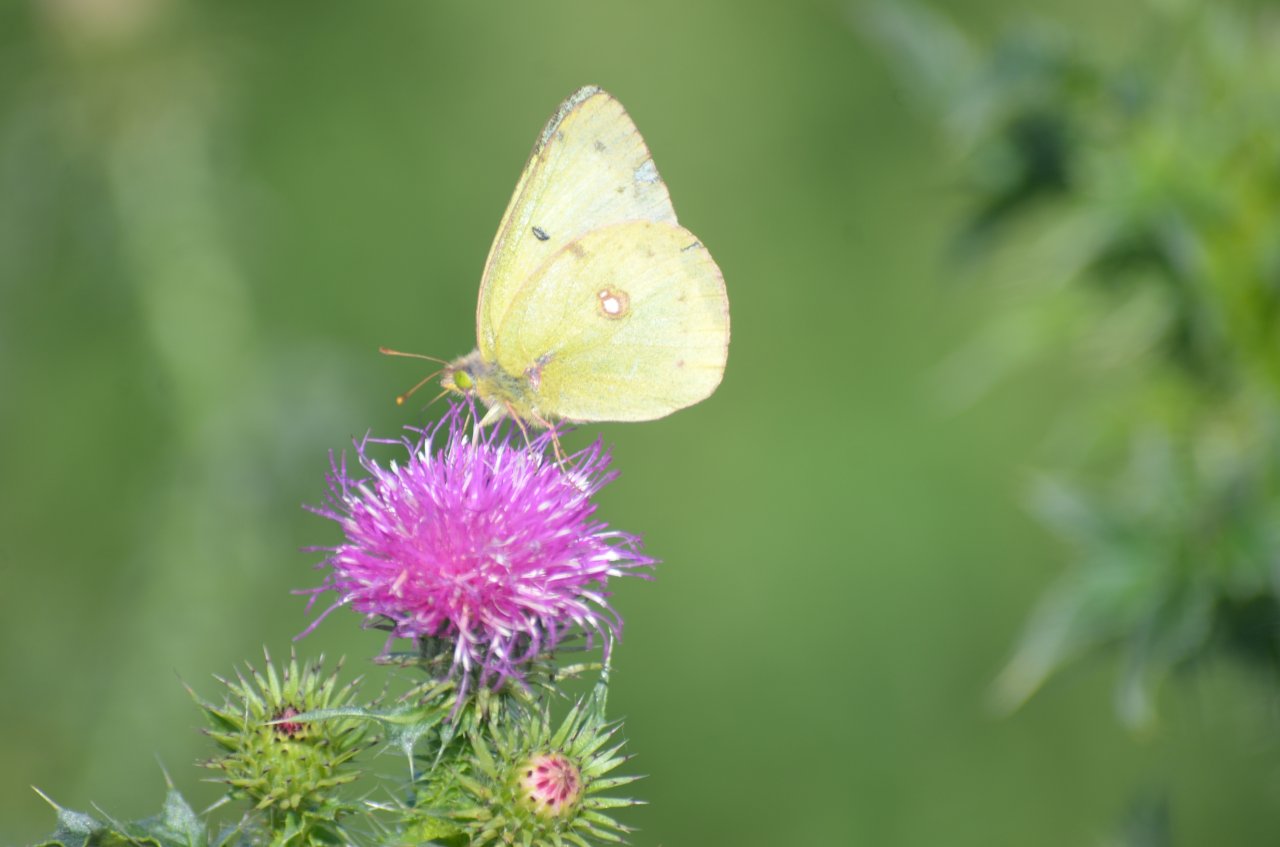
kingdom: Animalia
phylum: Arthropoda
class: Insecta
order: Lepidoptera
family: Pieridae
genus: Colias
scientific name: Colias philodice
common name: Clouded Sulphur
